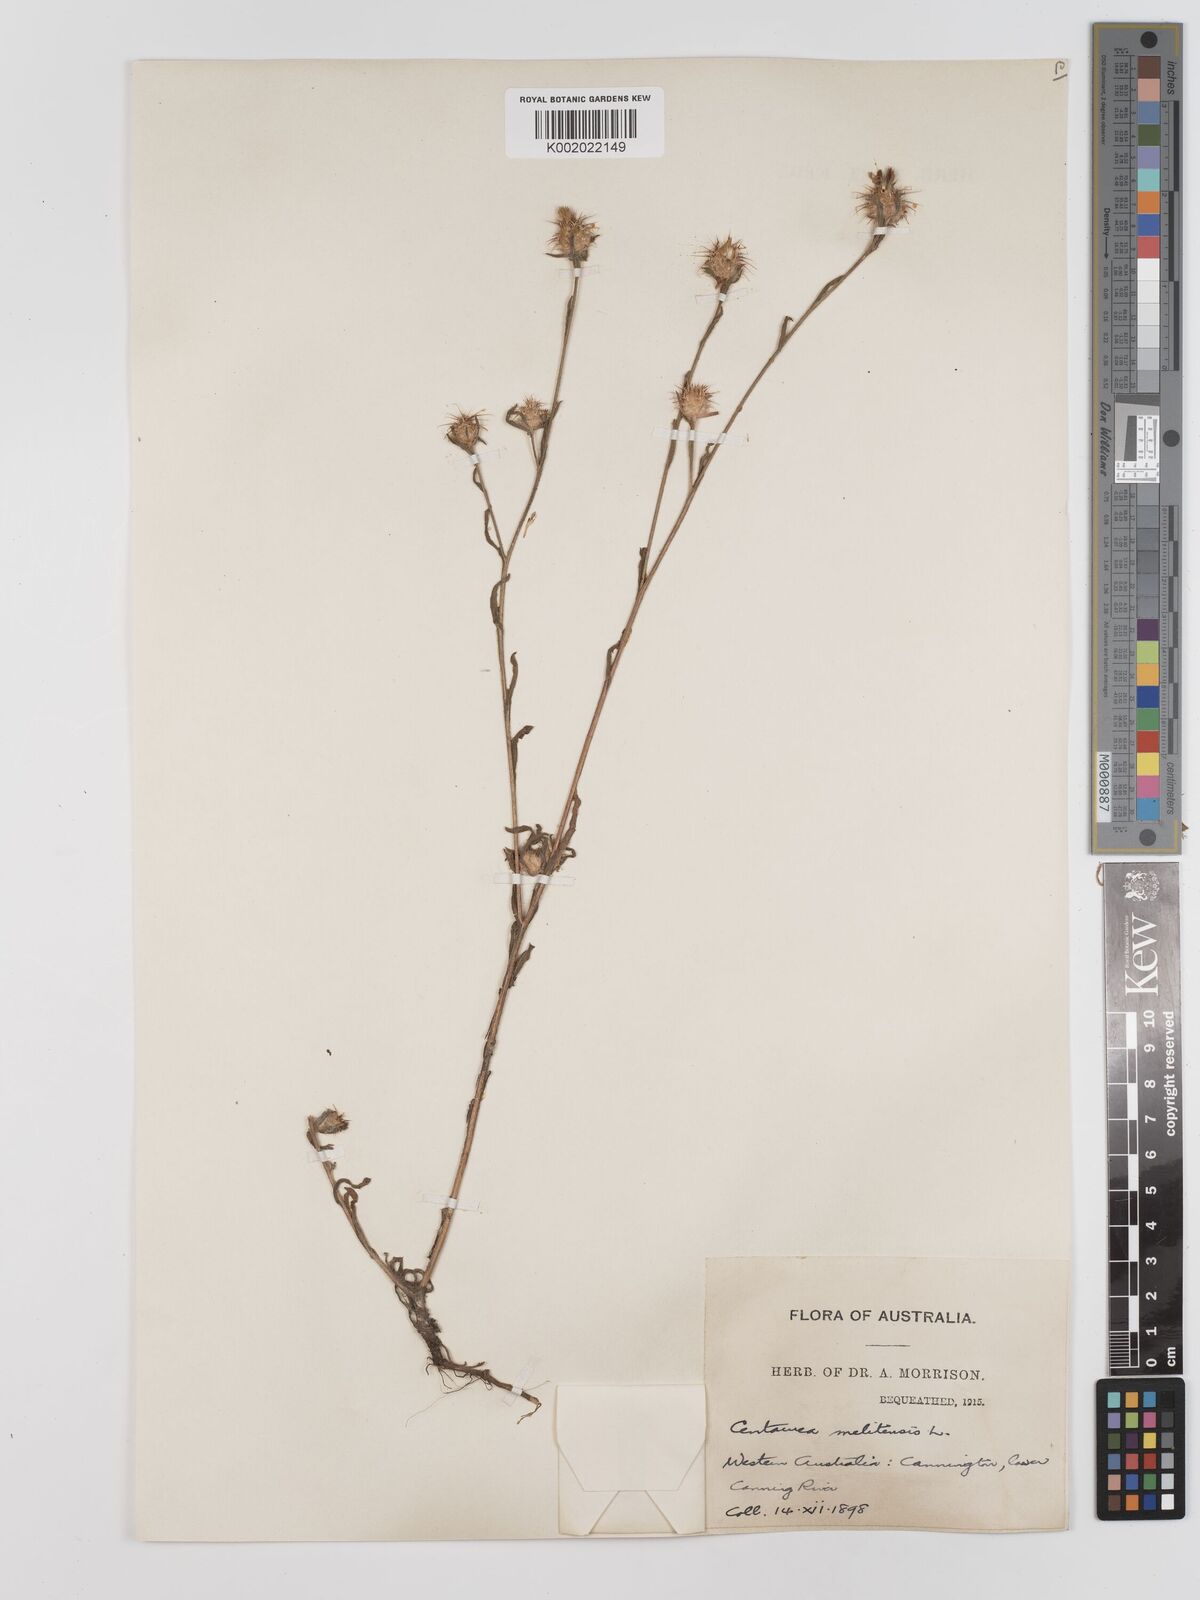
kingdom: Plantae
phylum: Tracheophyta
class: Magnoliopsida
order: Asterales
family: Asteraceae
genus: Centaurea
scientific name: Centaurea melitensis
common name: Maltese star-thistle
